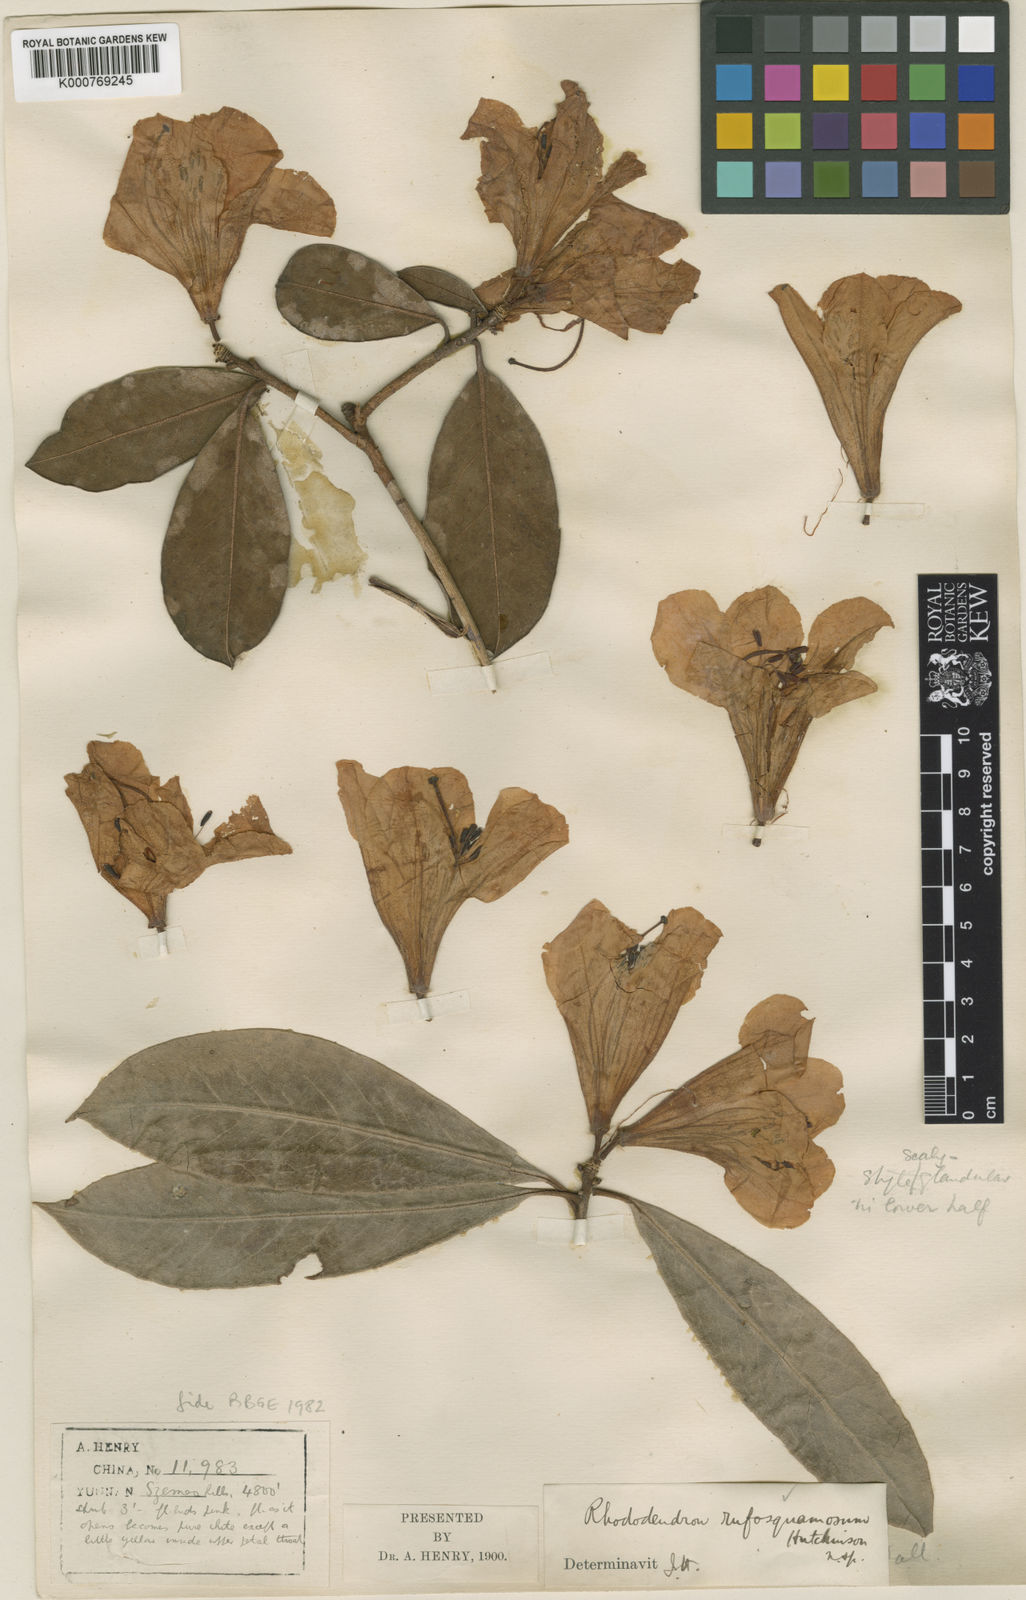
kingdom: Plantae
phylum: Tracheophyta
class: Magnoliopsida
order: Ericales
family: Ericaceae
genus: Rhododendron
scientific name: Rhododendron pachypodum
